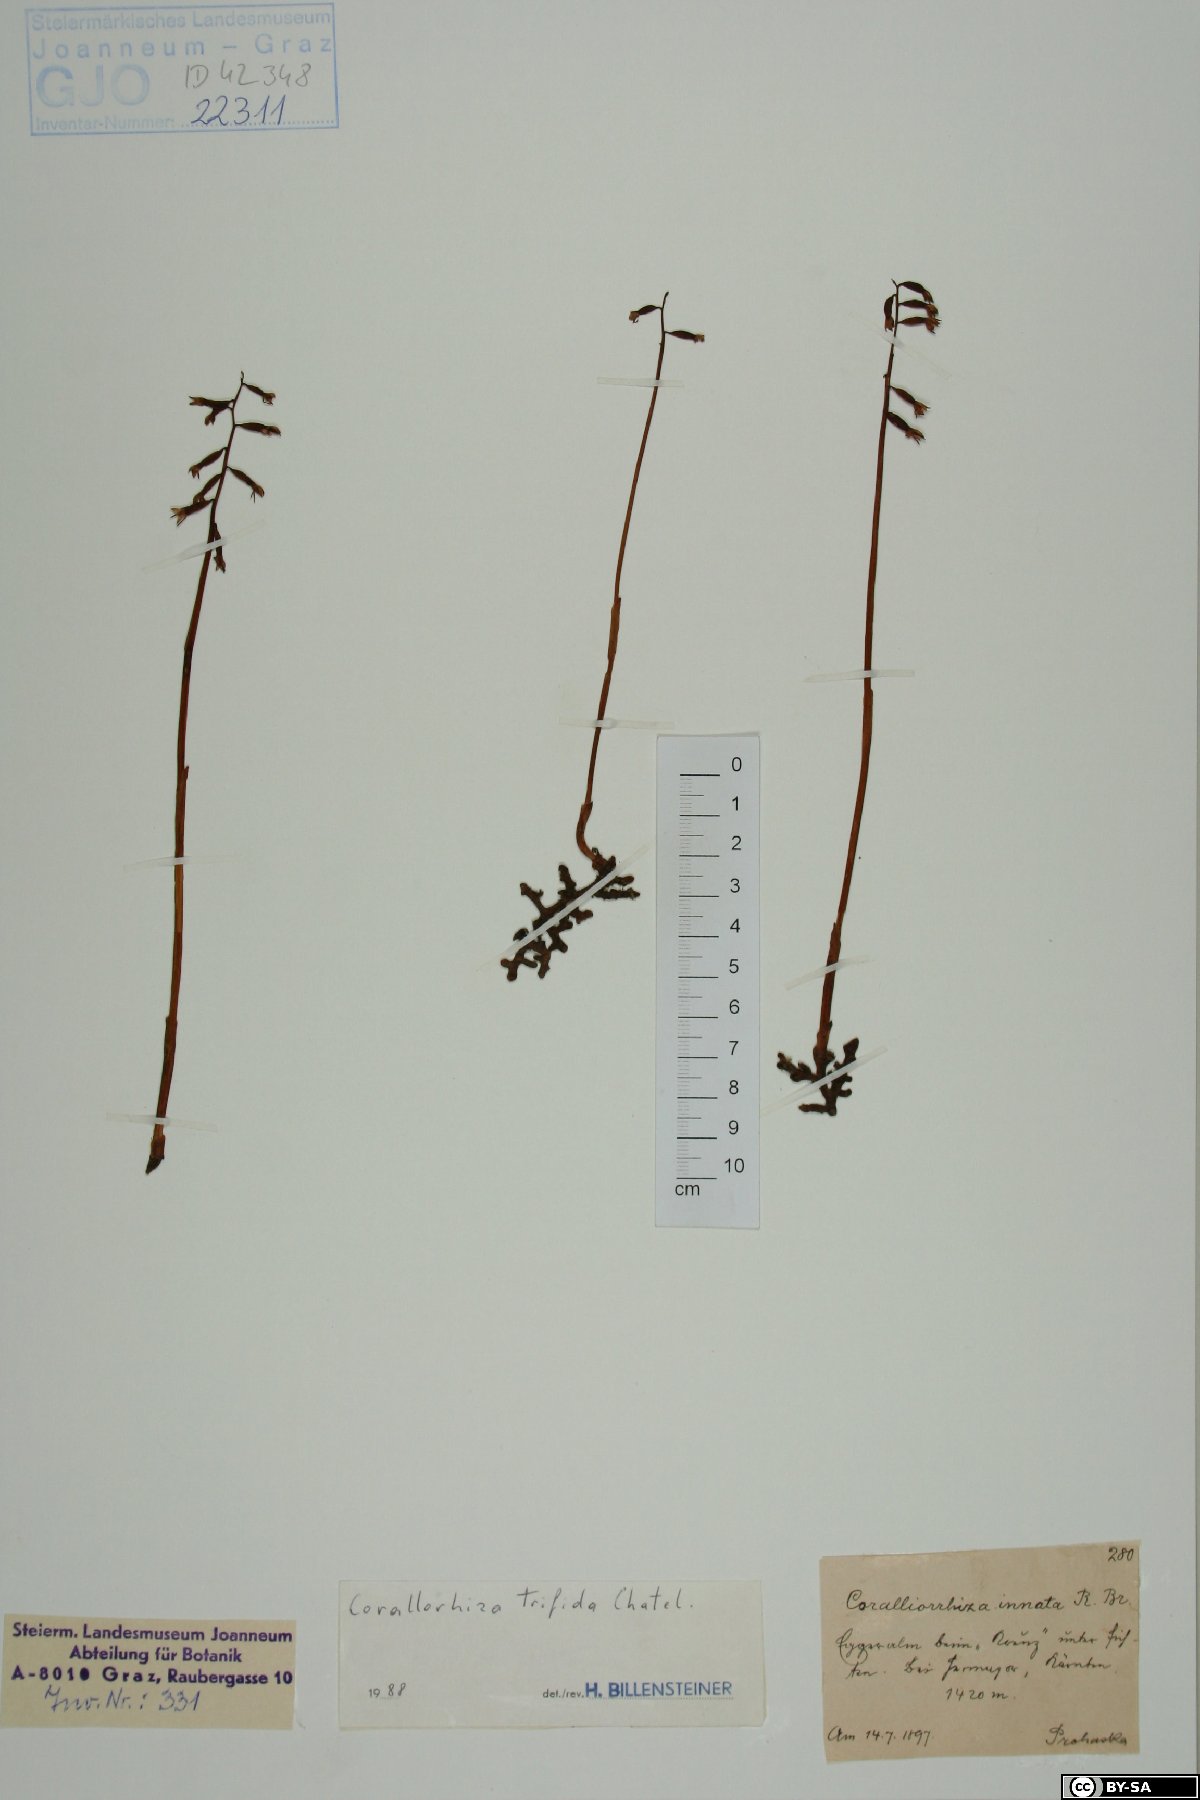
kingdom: Plantae
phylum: Tracheophyta
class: Liliopsida
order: Asparagales
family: Orchidaceae
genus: Corallorhiza
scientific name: Corallorhiza trifida
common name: Yellow coralroot
